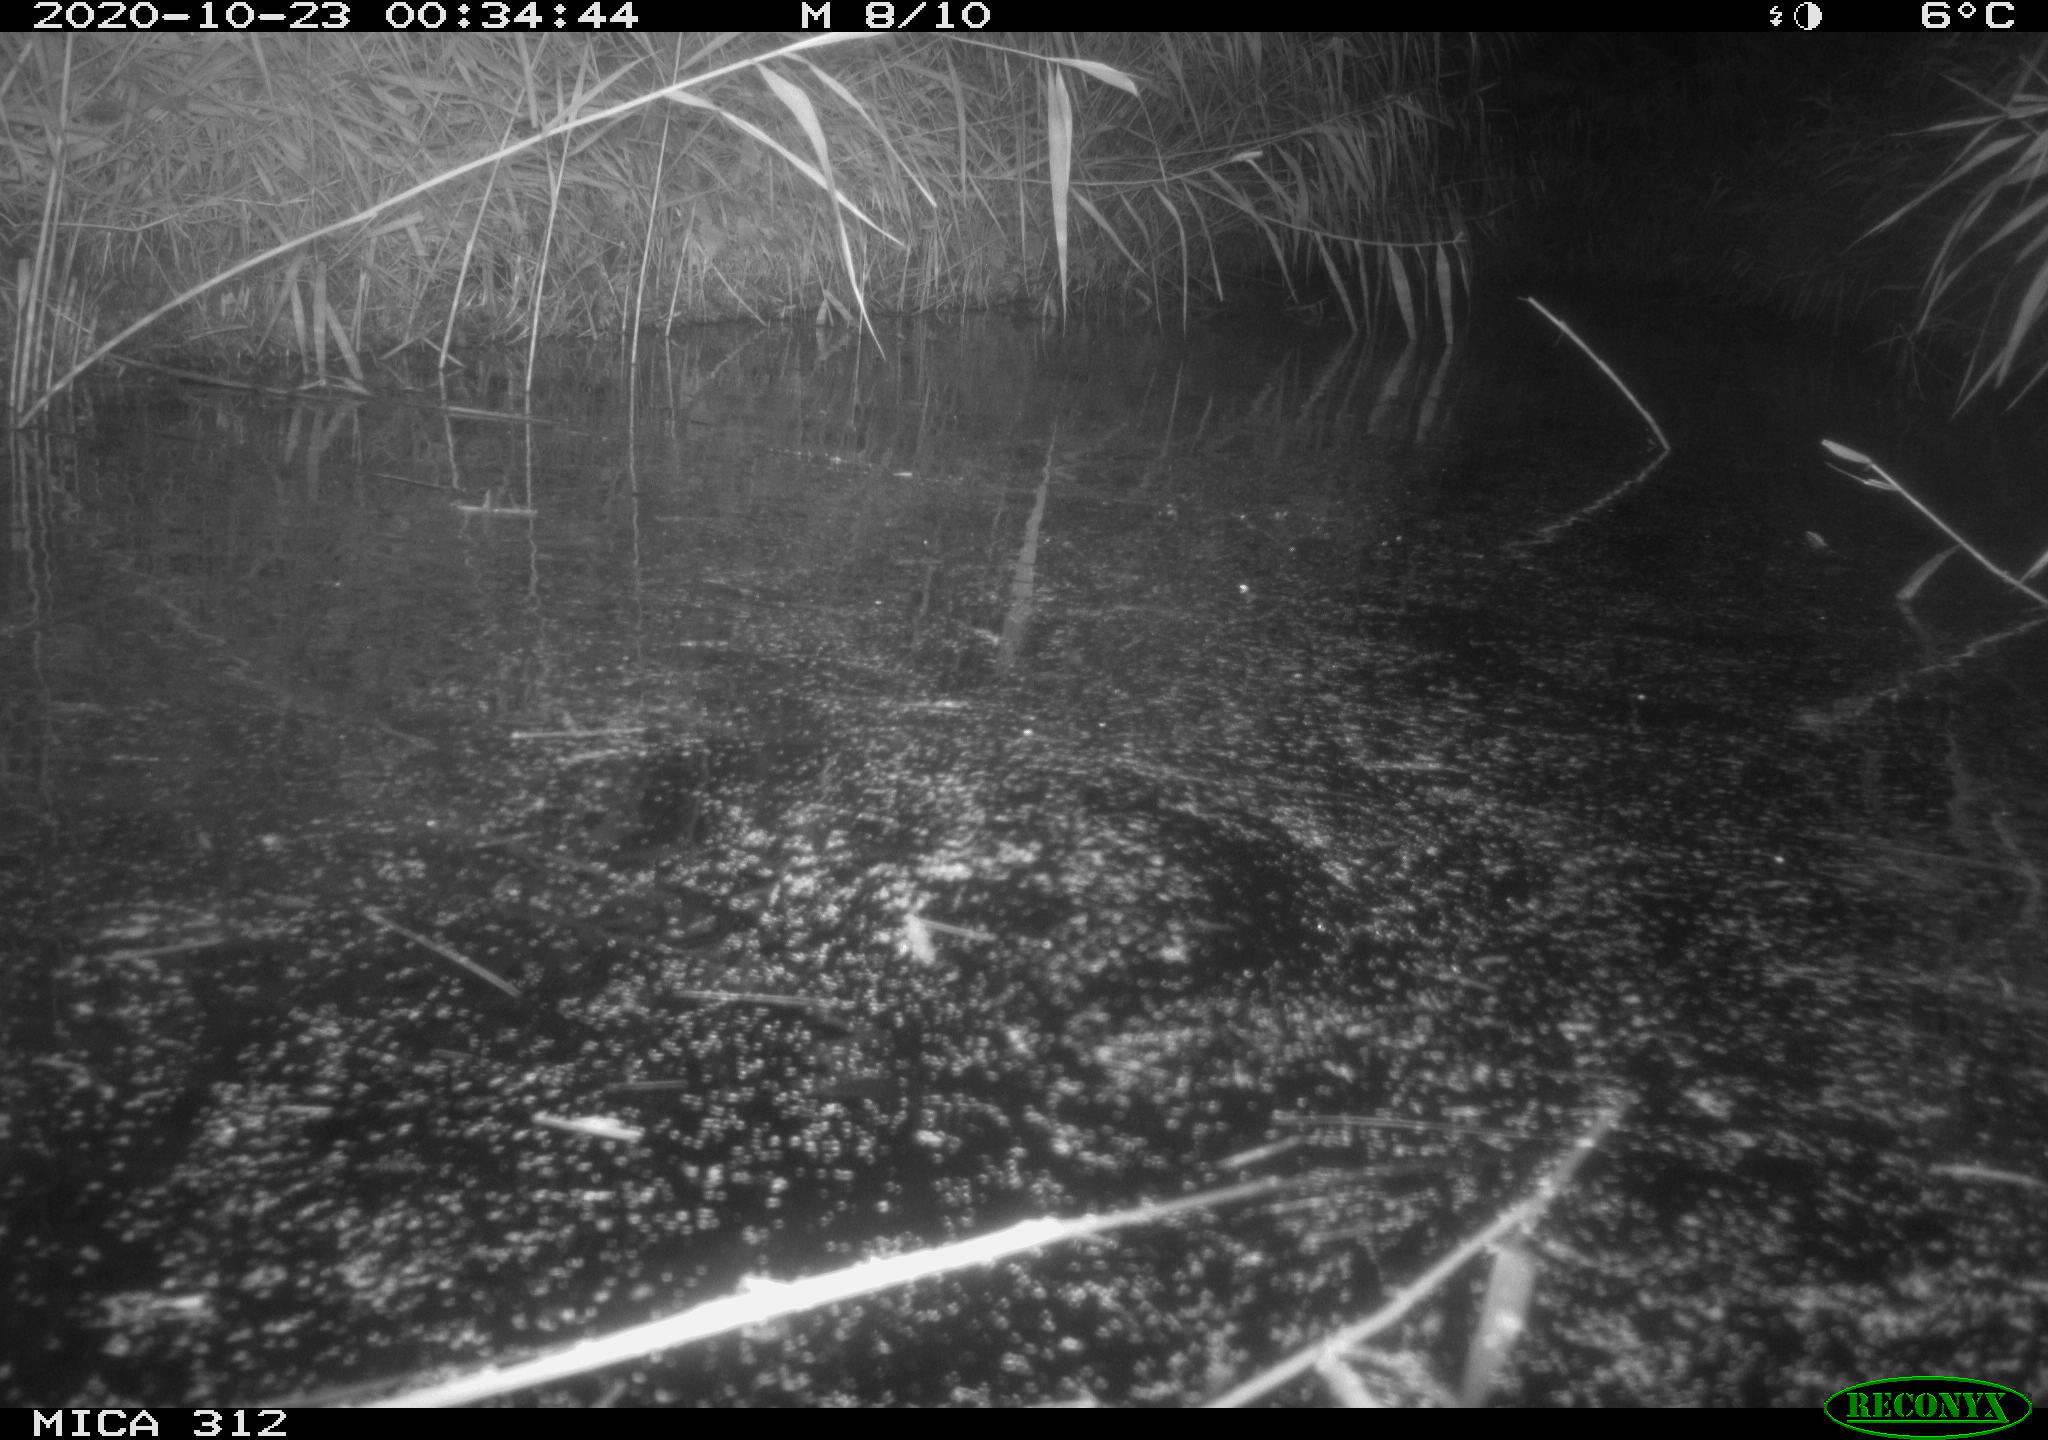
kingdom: Animalia
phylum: Chordata
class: Mammalia
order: Rodentia
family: Cricetidae
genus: Ondatra
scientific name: Ondatra zibethicus
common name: Muskrat
